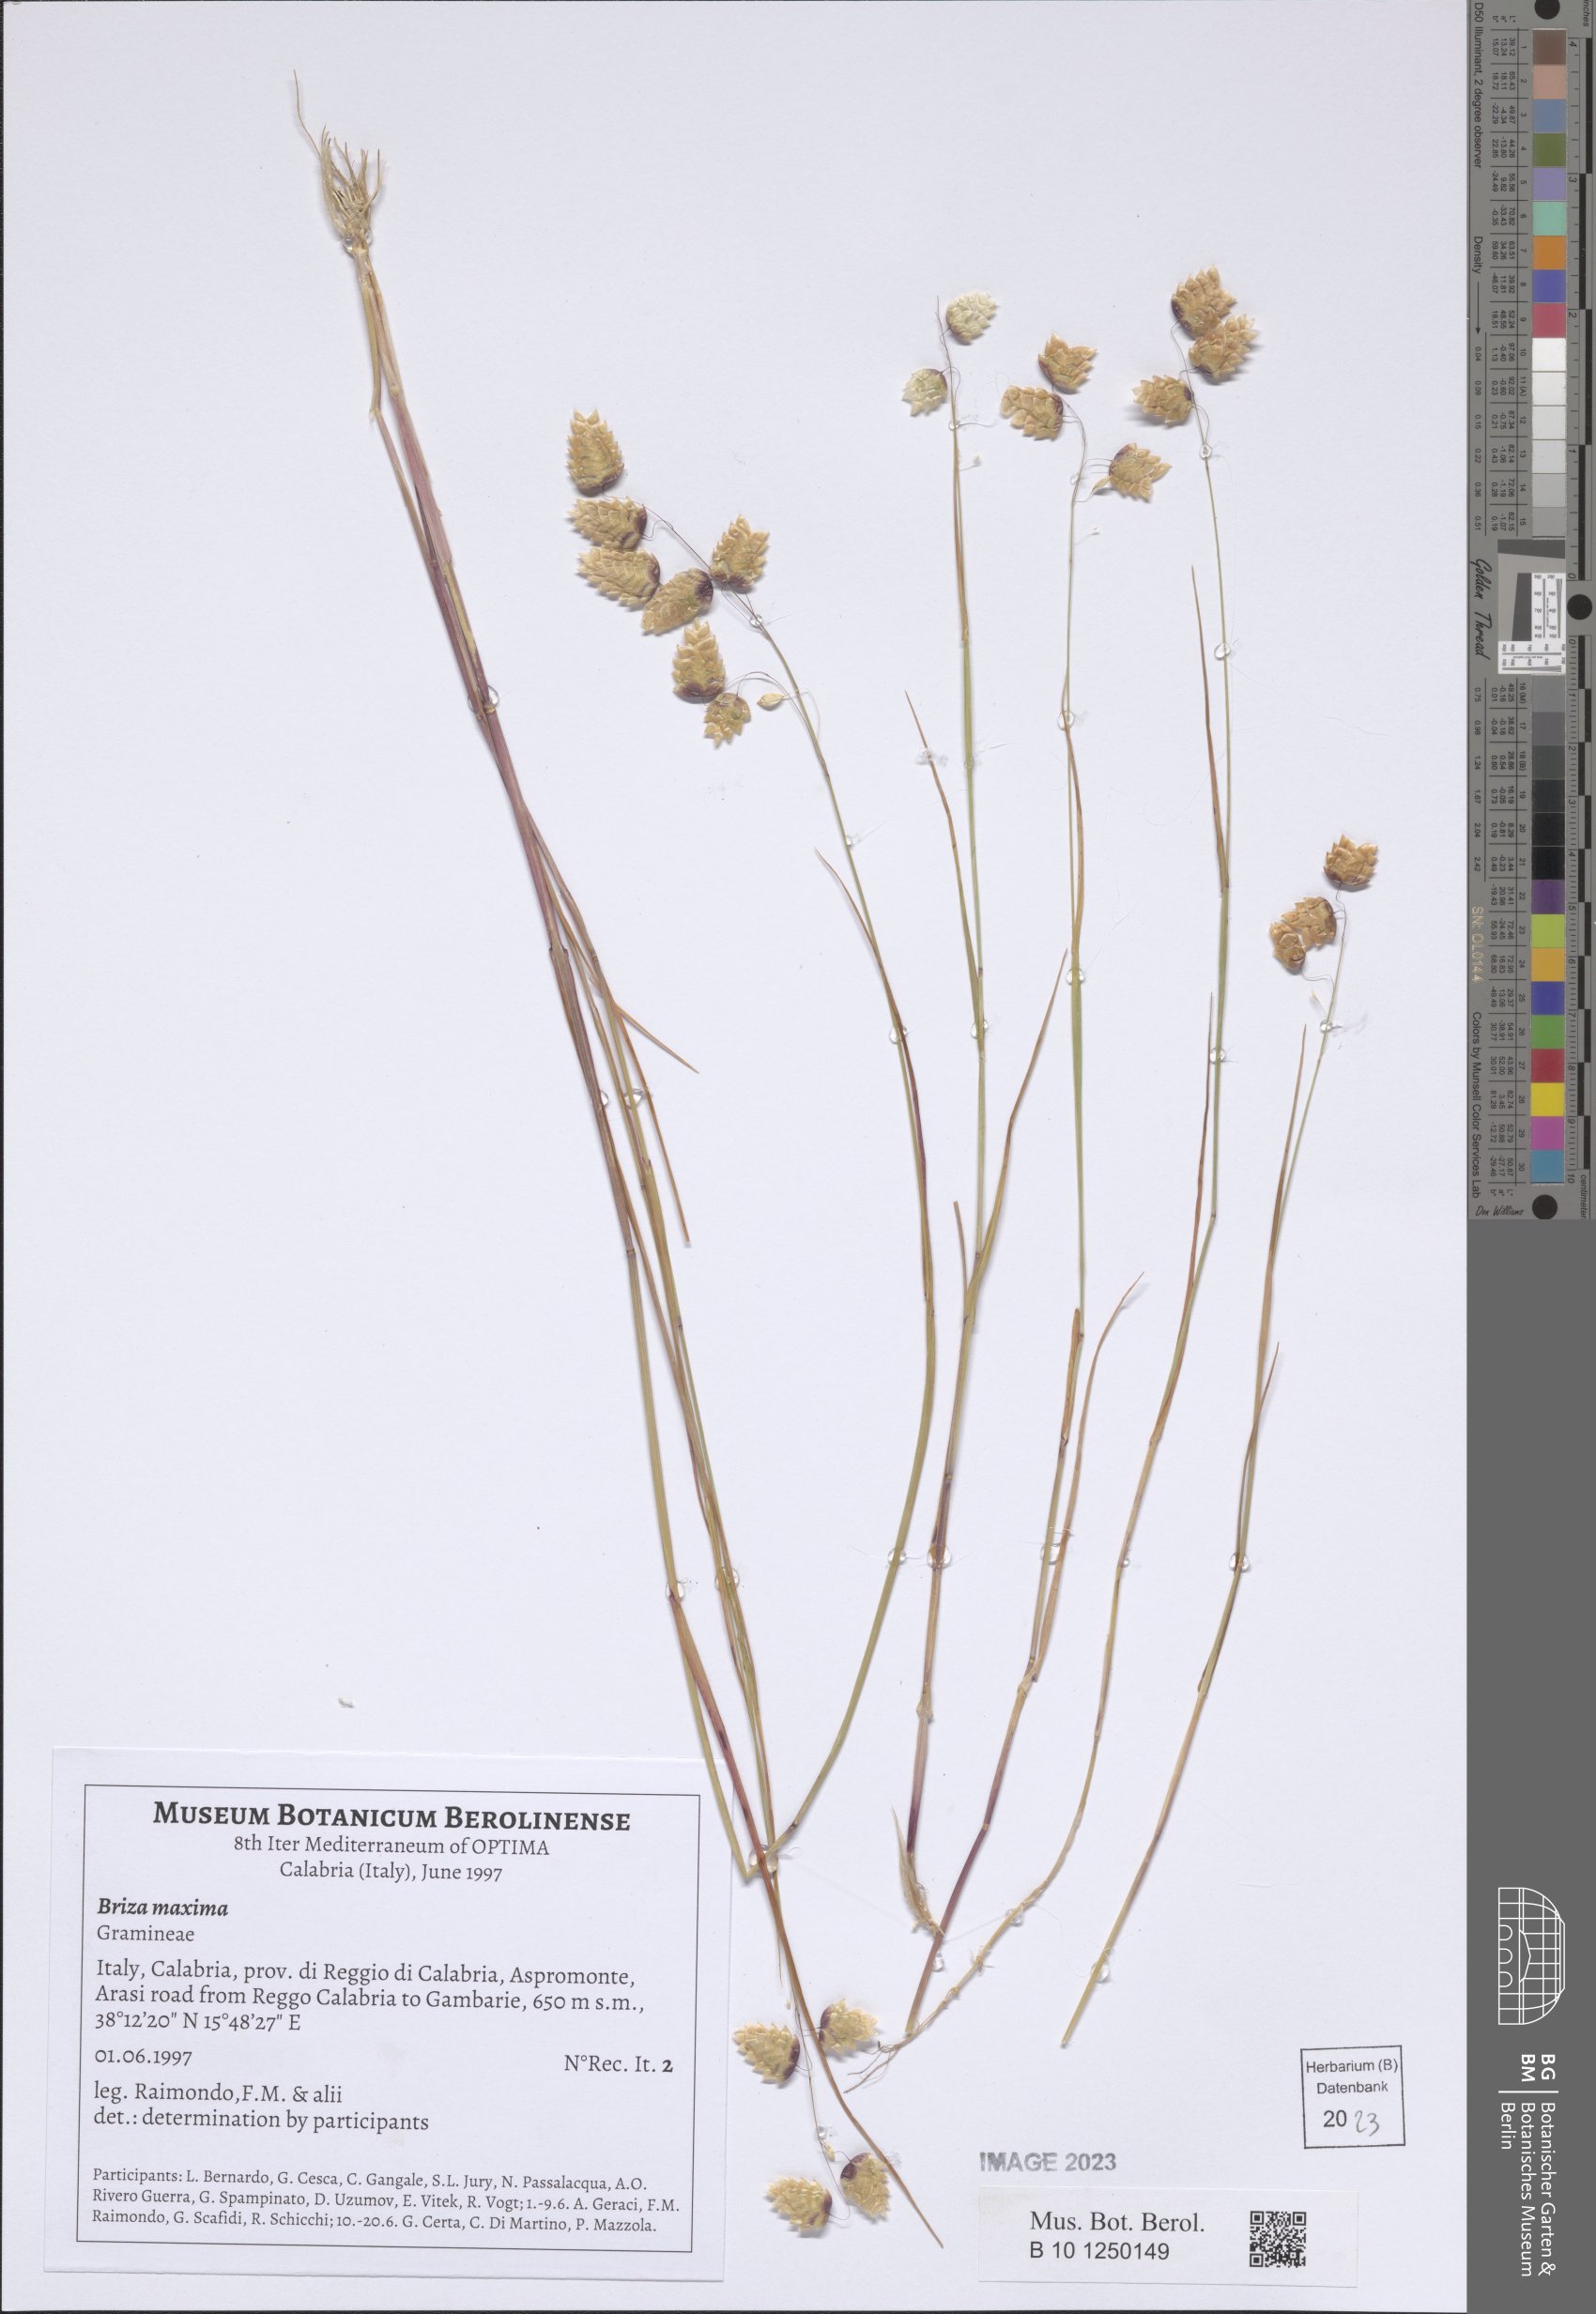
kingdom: Plantae
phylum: Tracheophyta
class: Liliopsida
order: Poales
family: Poaceae
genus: Briza
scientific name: Briza maxima
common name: Big quakinggrass
